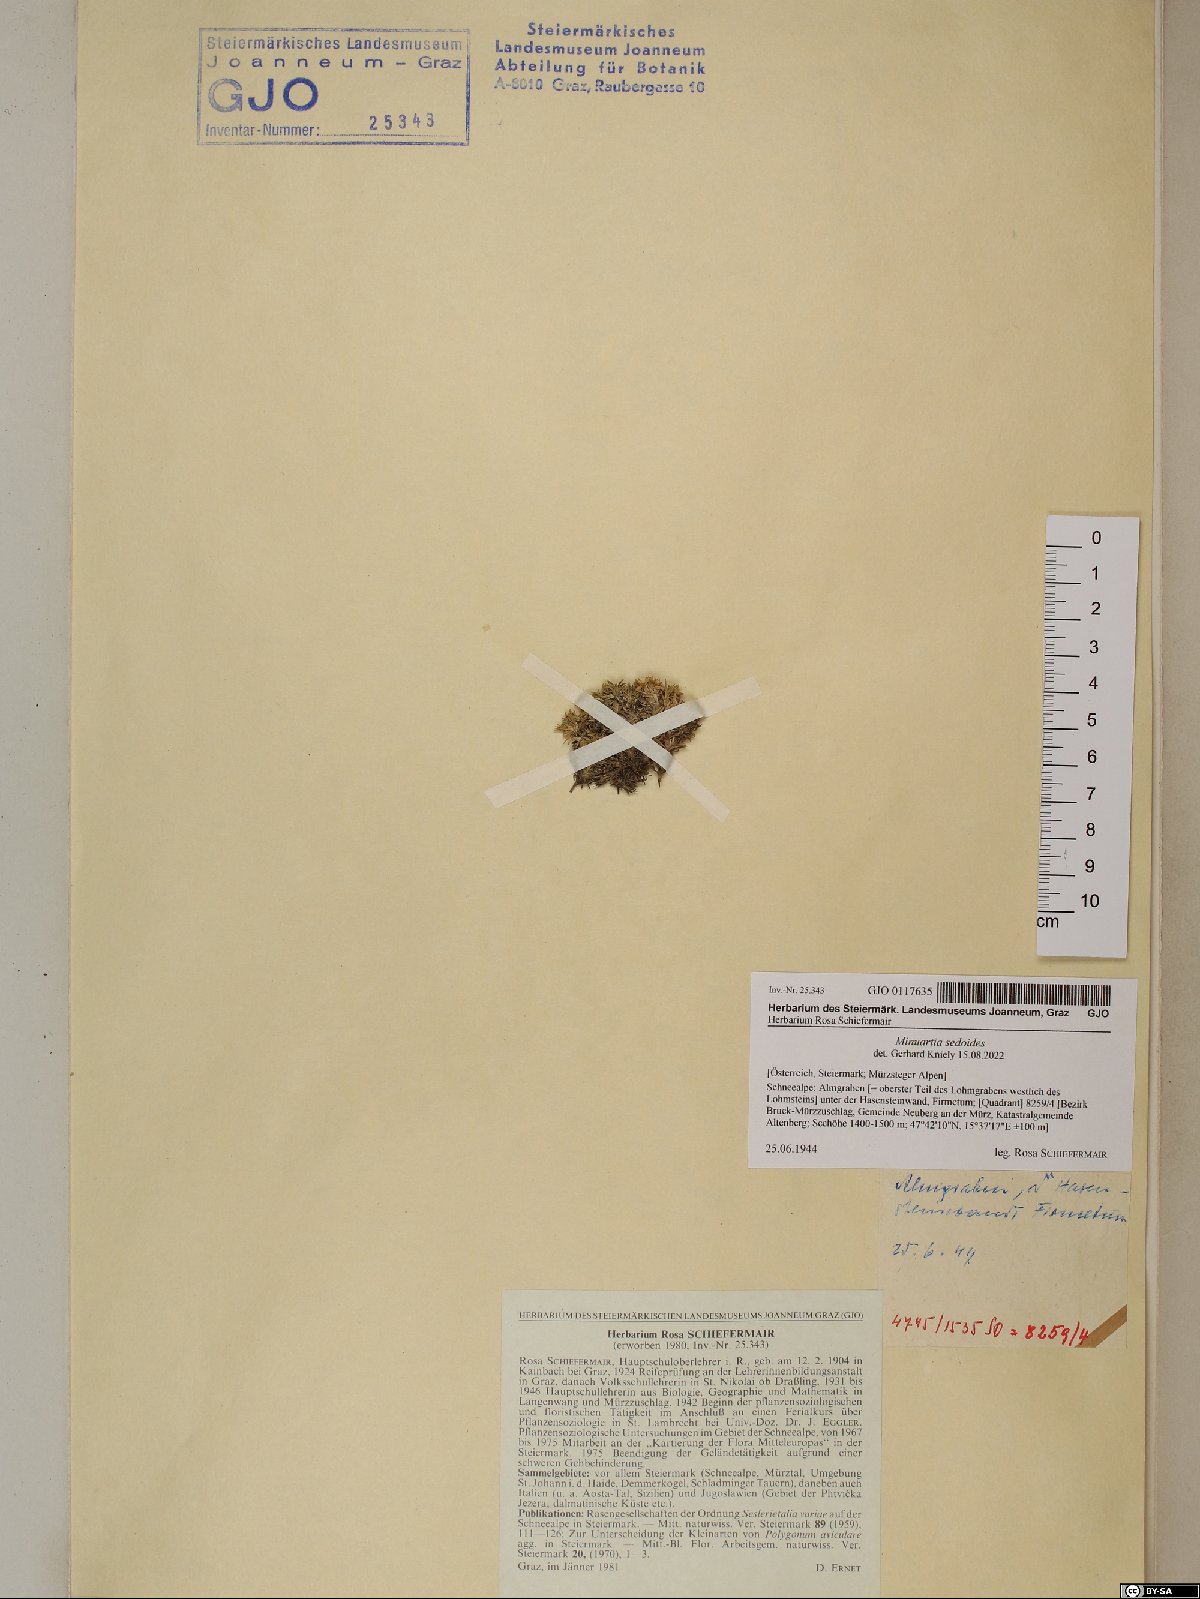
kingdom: Plantae
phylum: Tracheophyta
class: Magnoliopsida
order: Caryophyllales
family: Caryophyllaceae
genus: Cherleria
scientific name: Cherleria sedoides
